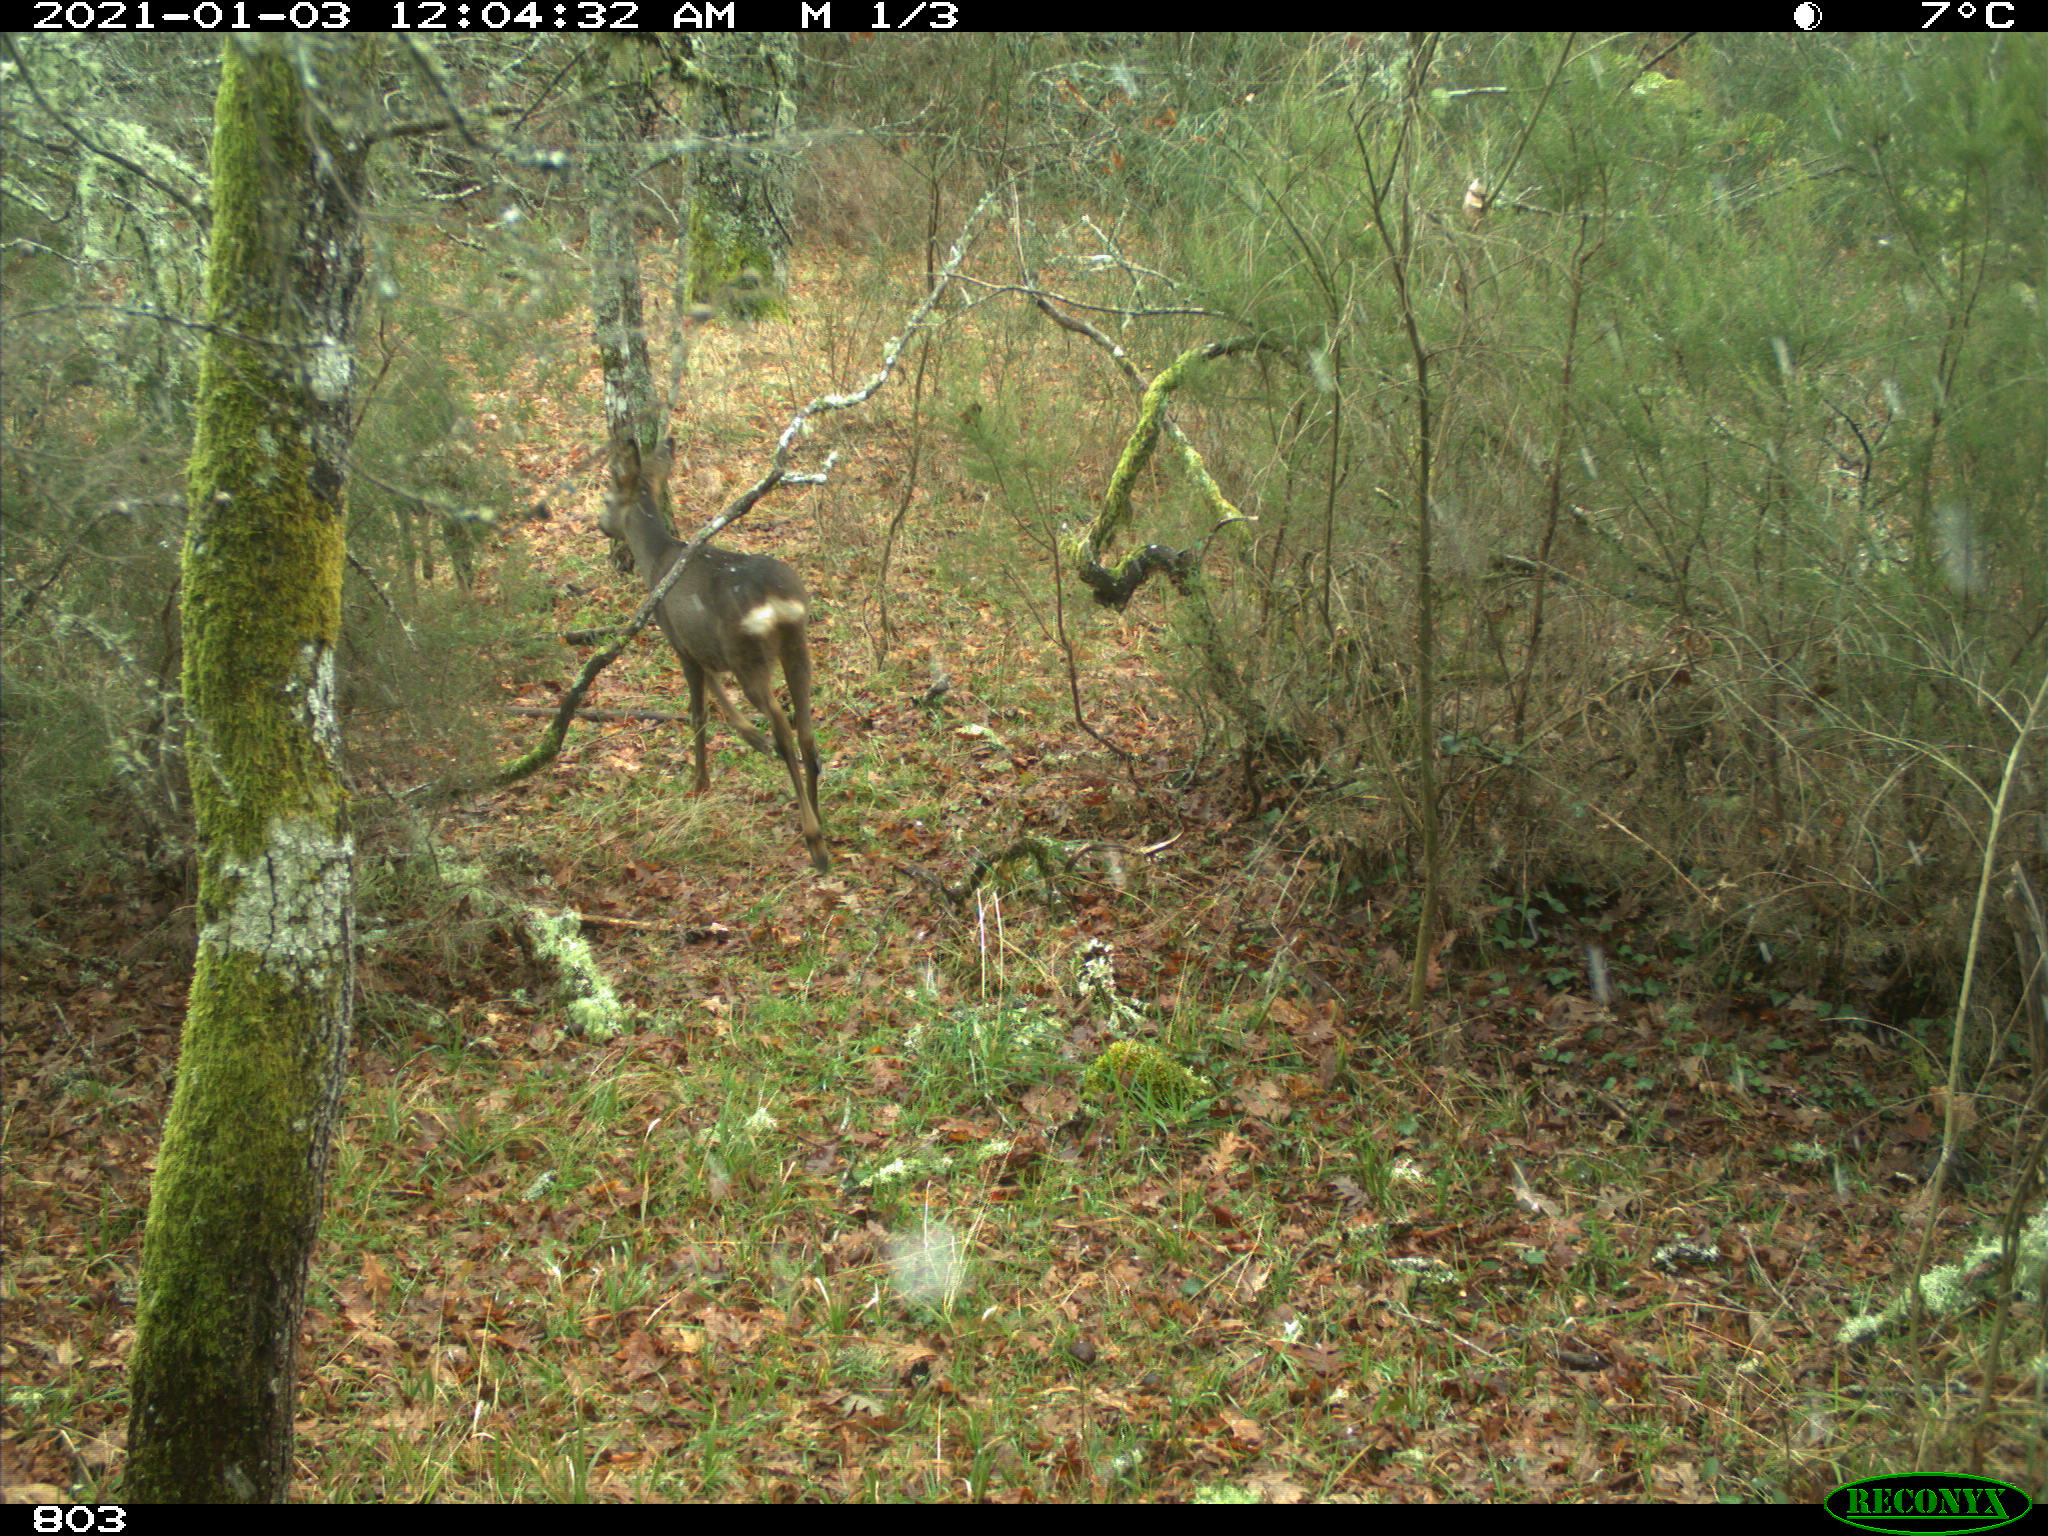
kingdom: Animalia
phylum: Chordata
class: Mammalia
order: Artiodactyla
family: Cervidae
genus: Capreolus
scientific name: Capreolus capreolus
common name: Western roe deer
